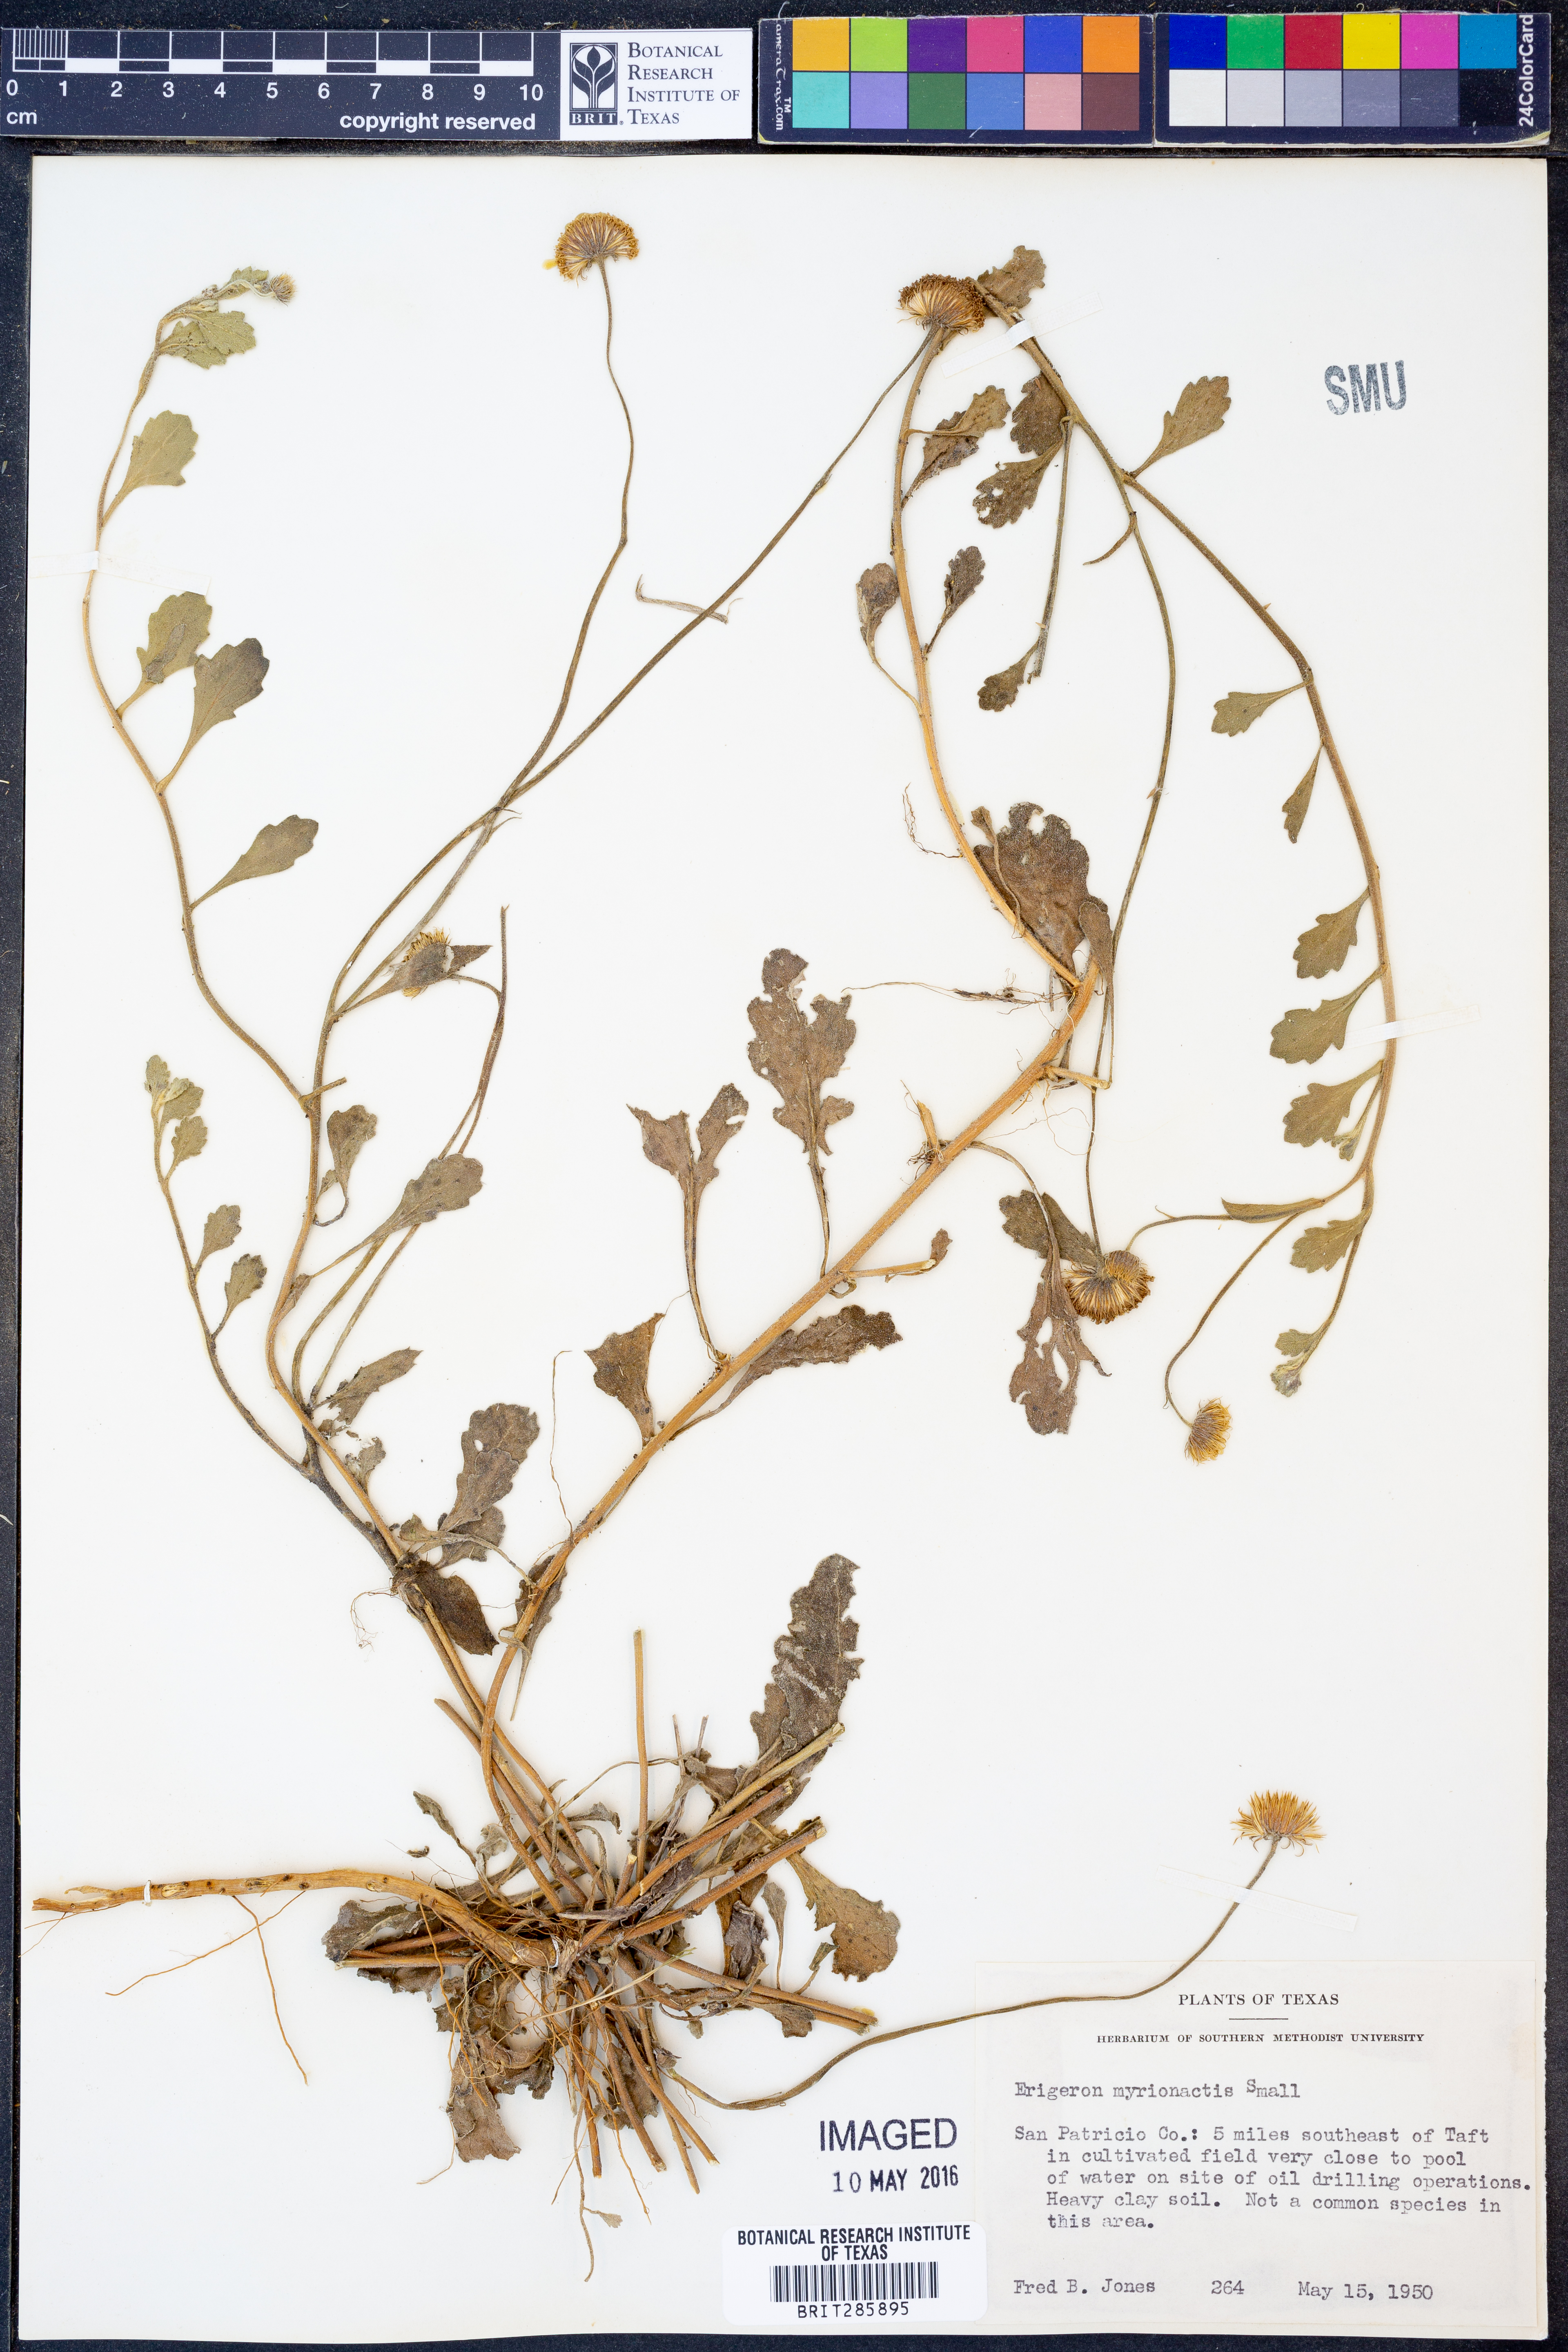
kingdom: Plantae
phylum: Tracheophyta
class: Magnoliopsida
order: Asterales
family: Asteraceae
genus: Erigeron
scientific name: Erigeron procumbens
